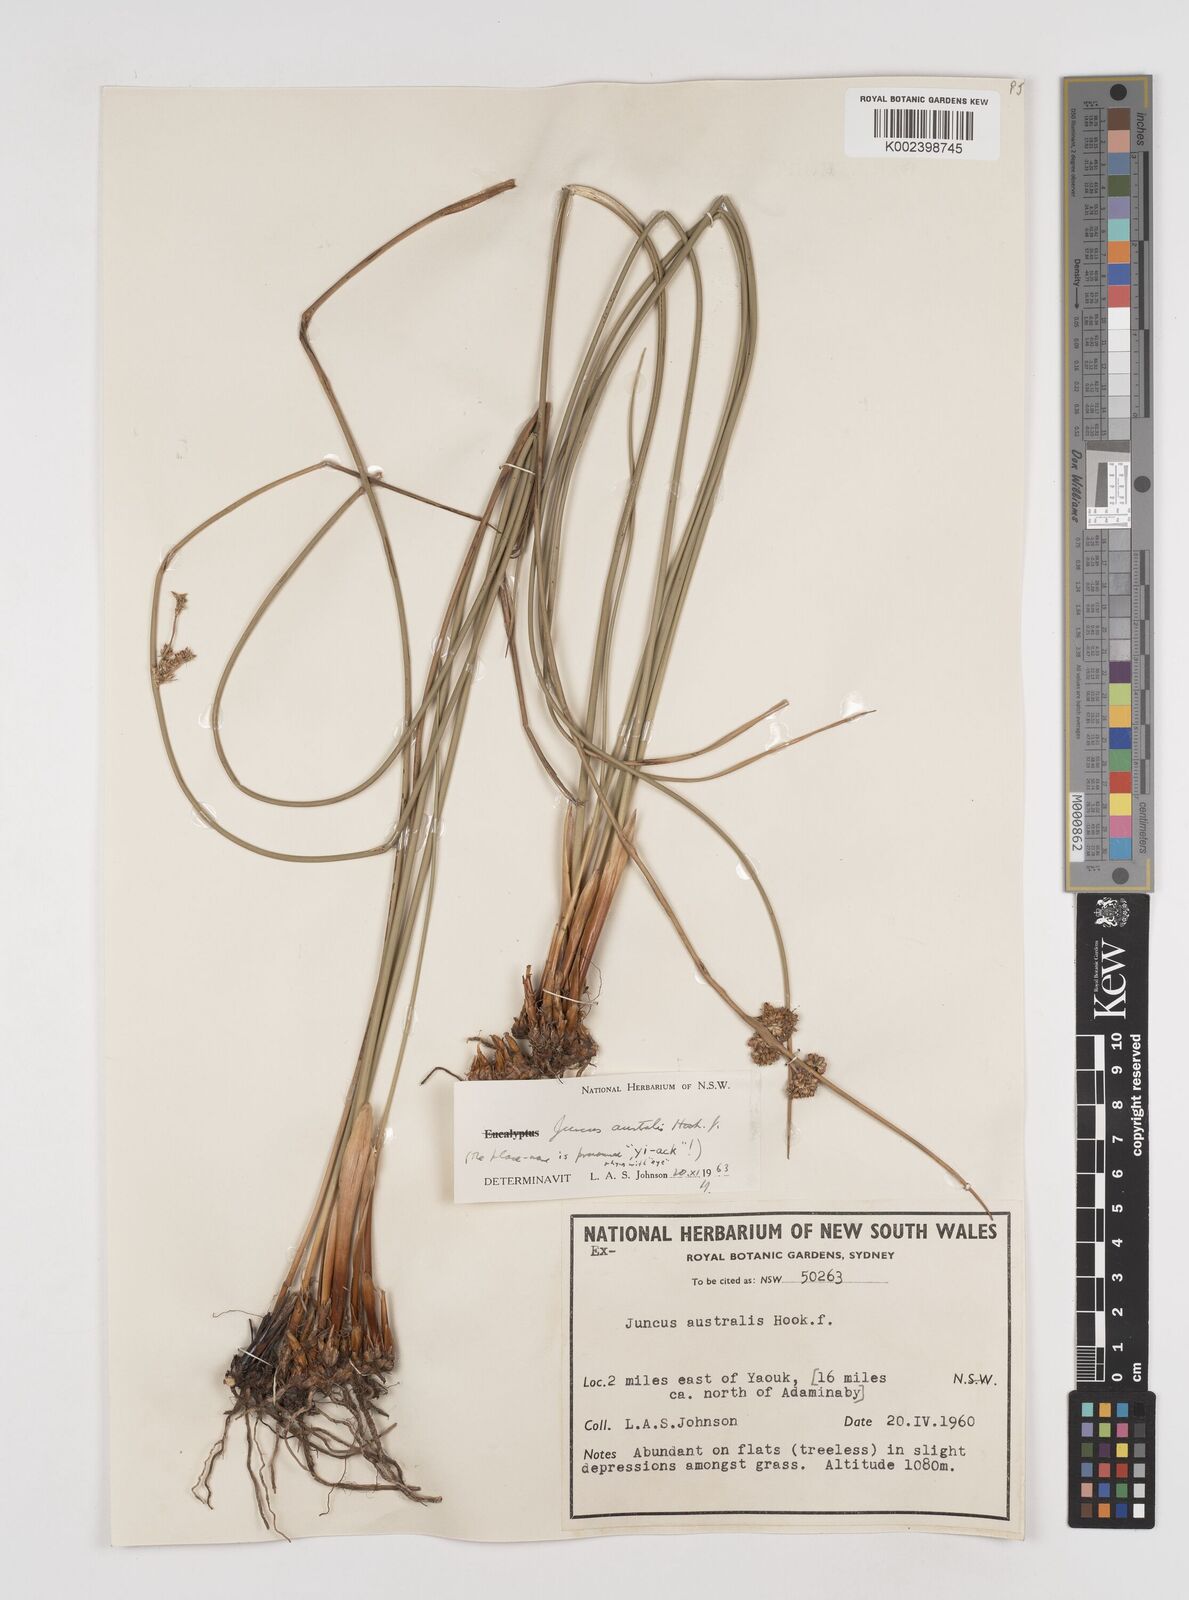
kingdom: Plantae
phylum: Tracheophyta
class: Liliopsida
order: Poales
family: Juncaceae
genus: Juncus
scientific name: Juncus australis
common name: Austral rush
